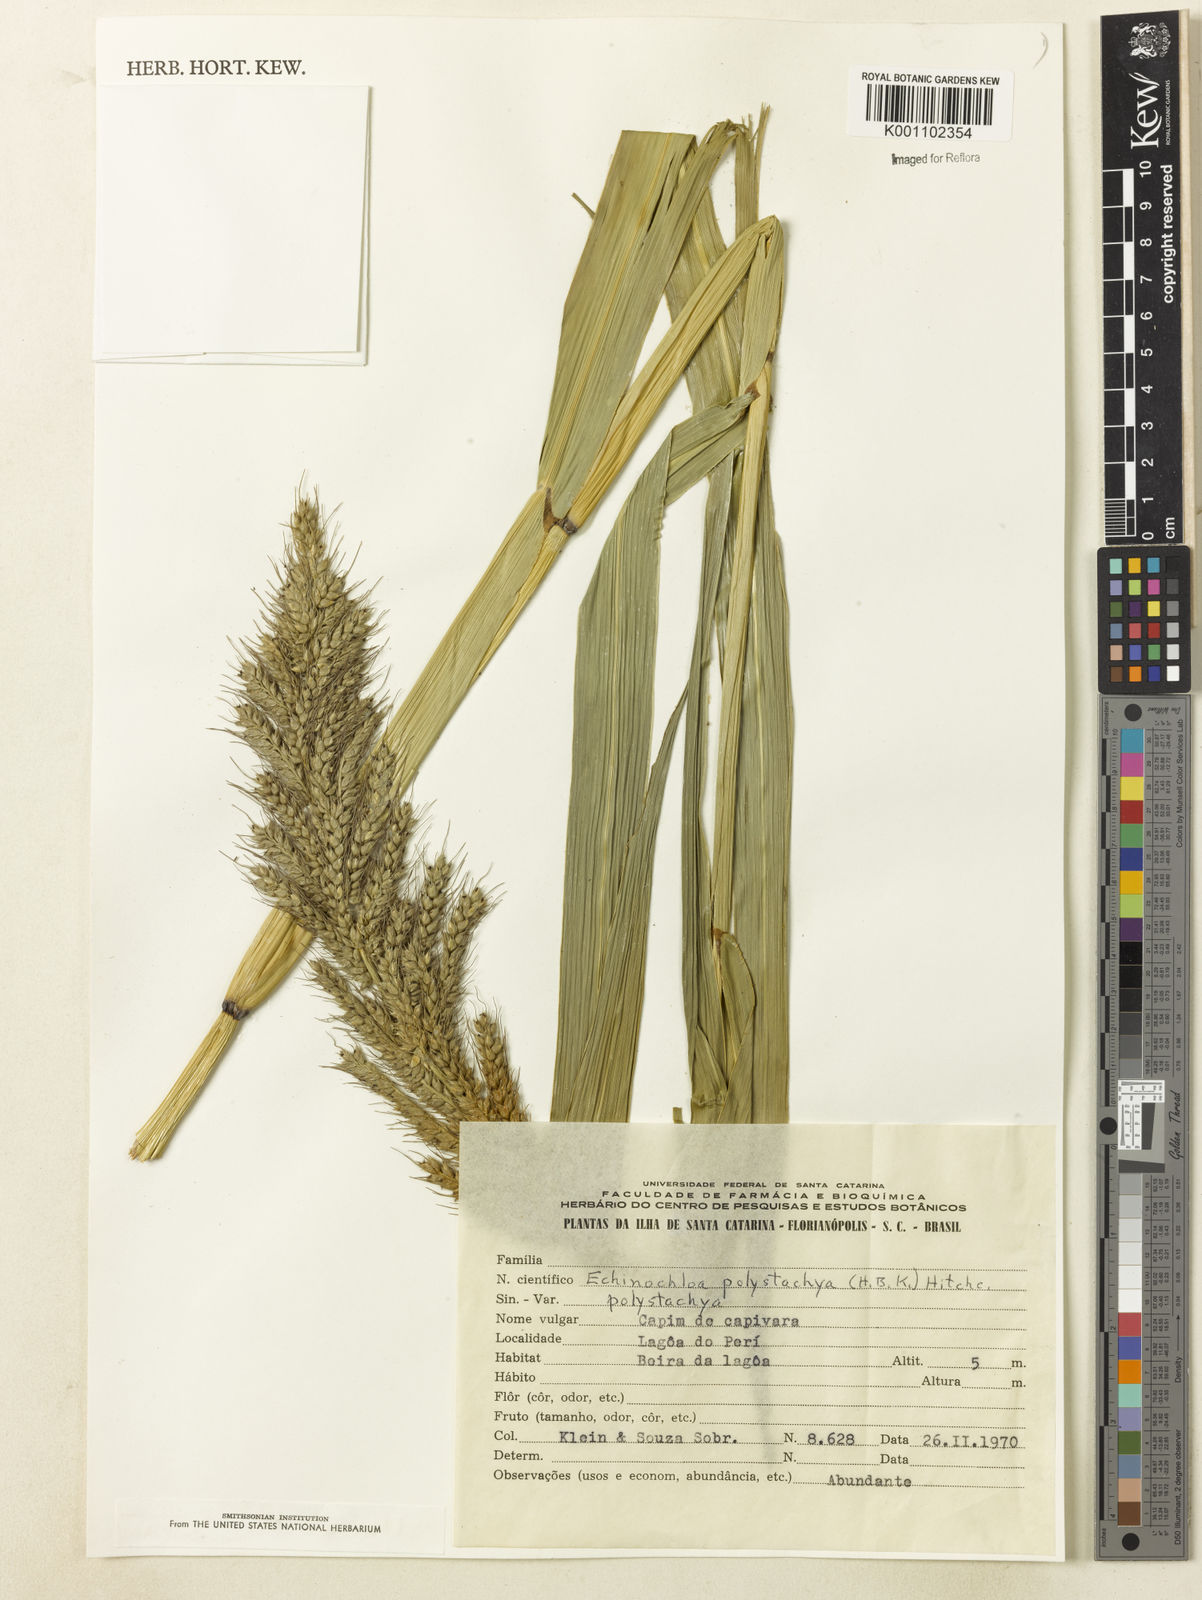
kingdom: Plantae
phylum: Tracheophyta
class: Liliopsida
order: Poales
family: Poaceae
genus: Echinochloa
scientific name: Echinochloa polystachya
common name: Creeping river grass
